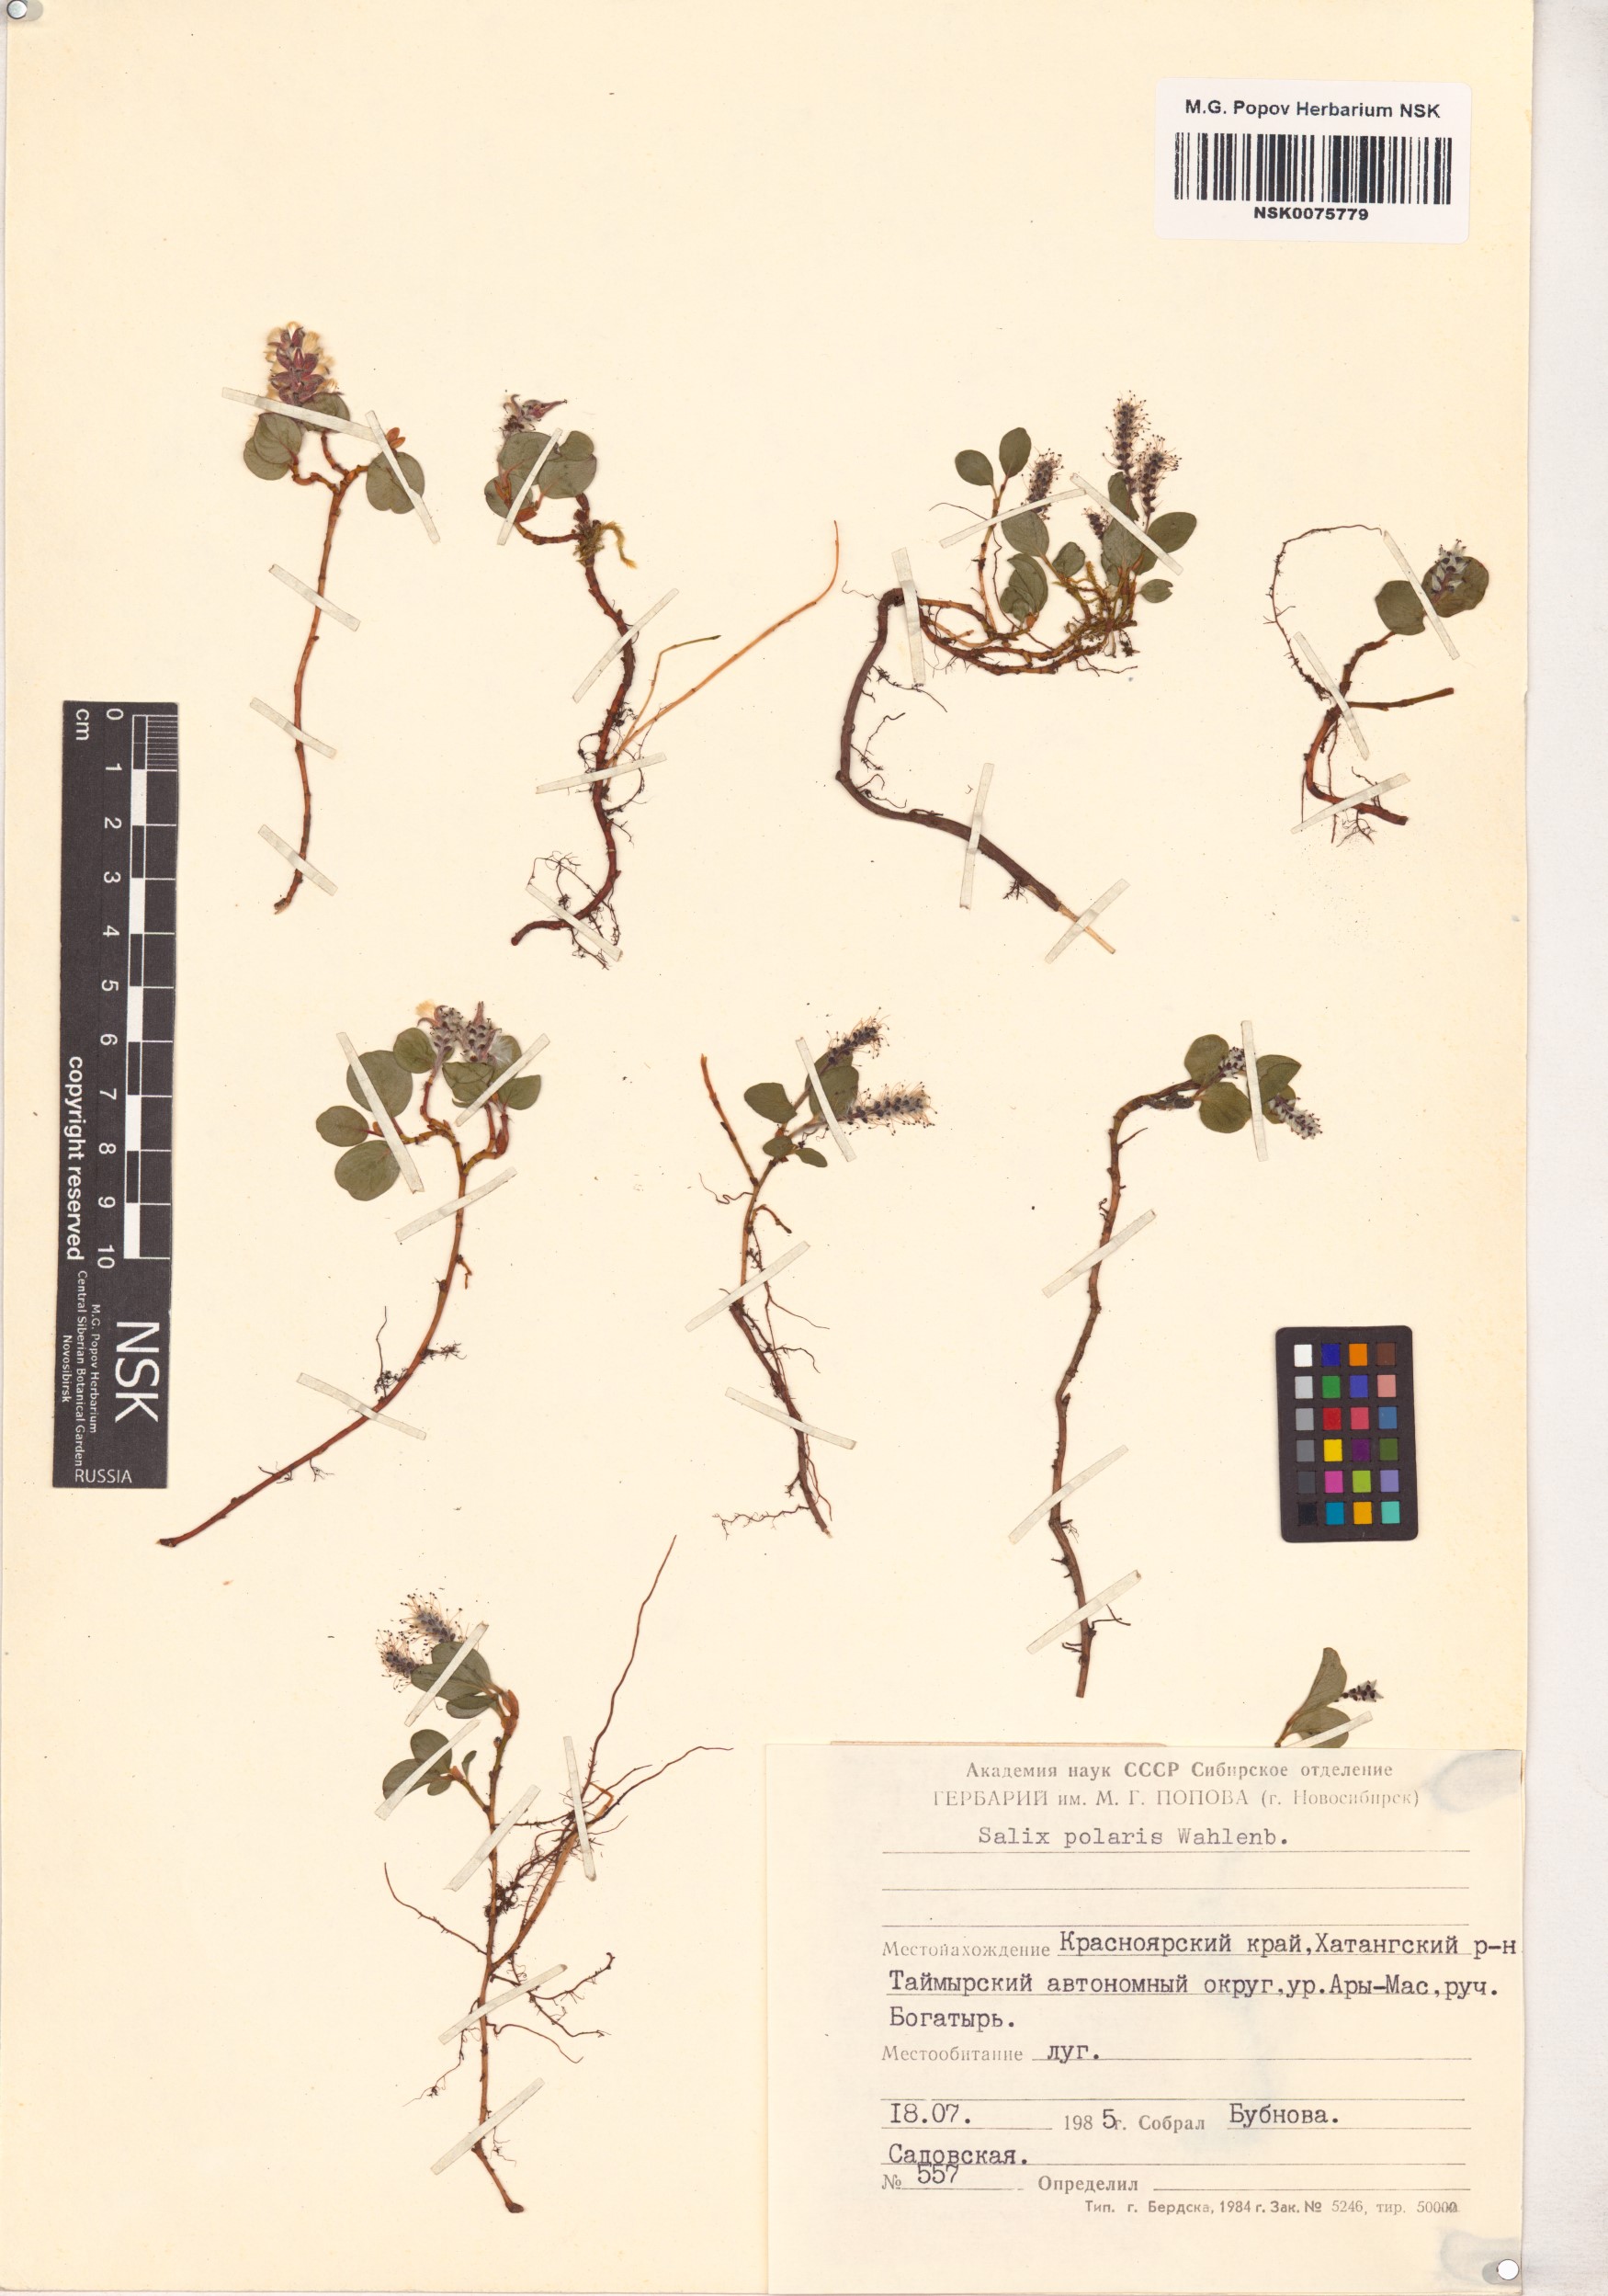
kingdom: Plantae
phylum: Tracheophyta
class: Magnoliopsida
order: Malpighiales
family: Salicaceae
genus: Salix
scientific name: Salix polaris
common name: Polar willow
